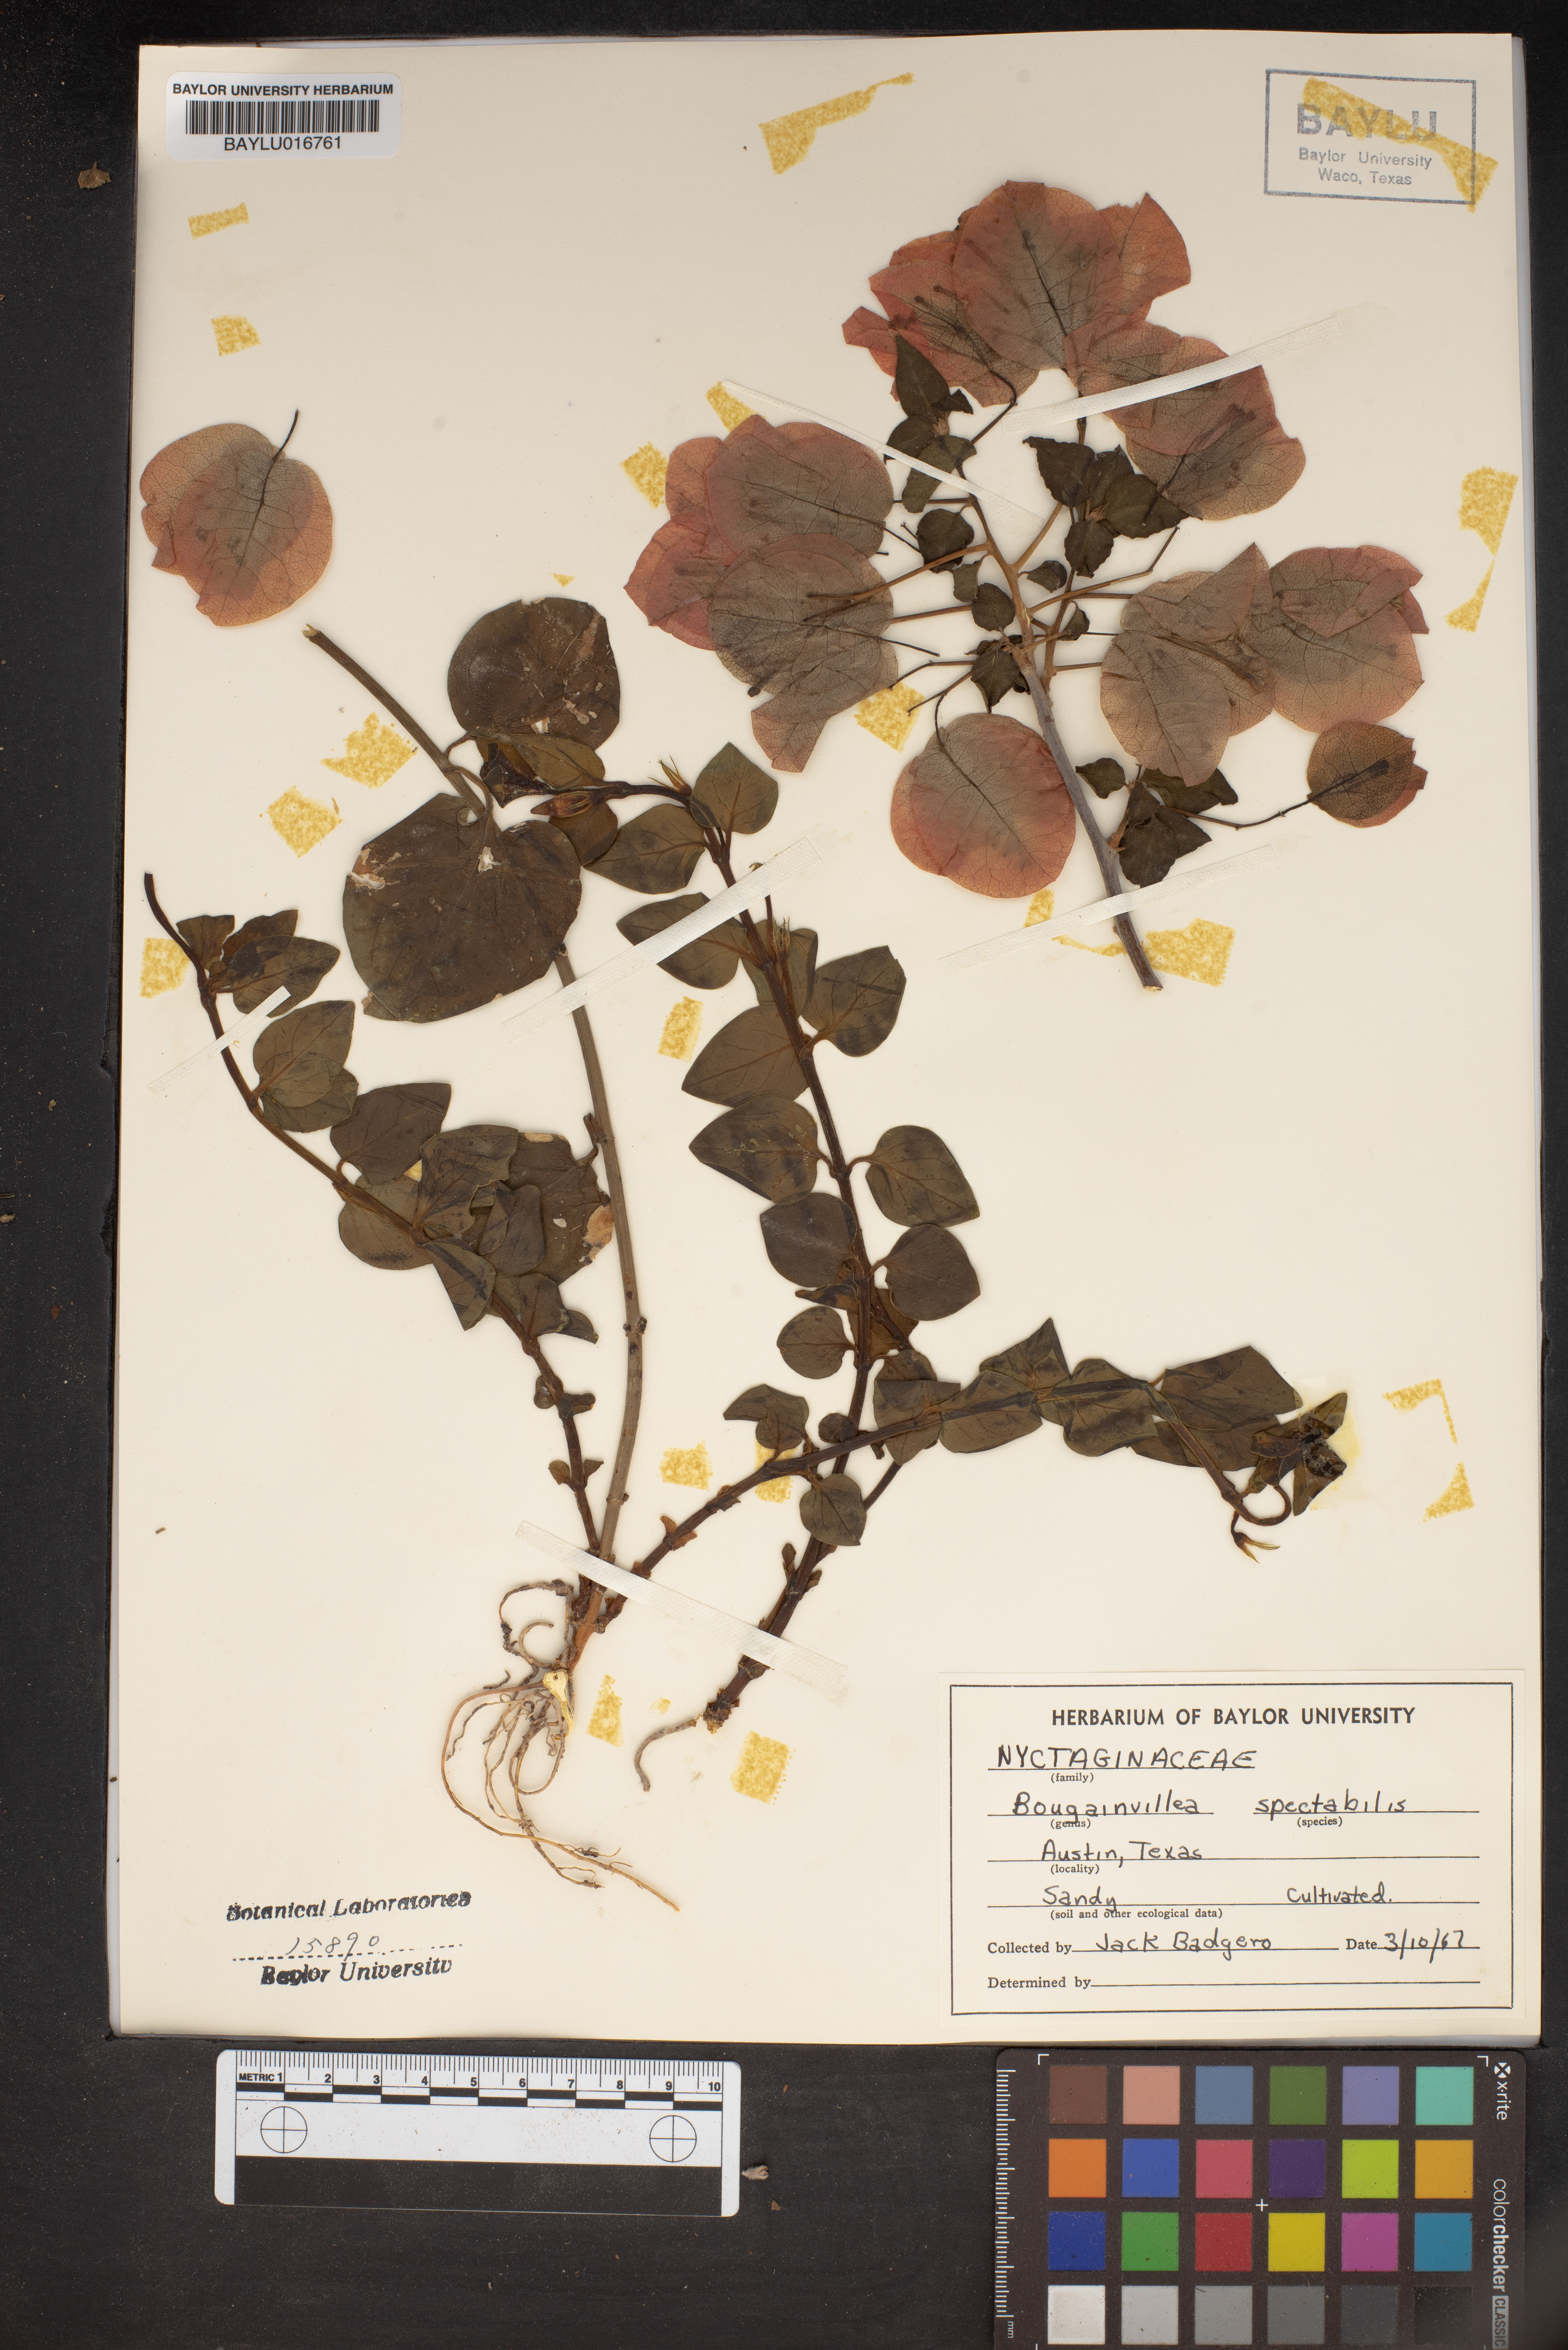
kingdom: Plantae
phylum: Tracheophyta
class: Magnoliopsida
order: Caryophyllales
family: Nyctaginaceae
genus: Bougainvillea
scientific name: Bougainvillea spectabilis
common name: Great bougainvillea
